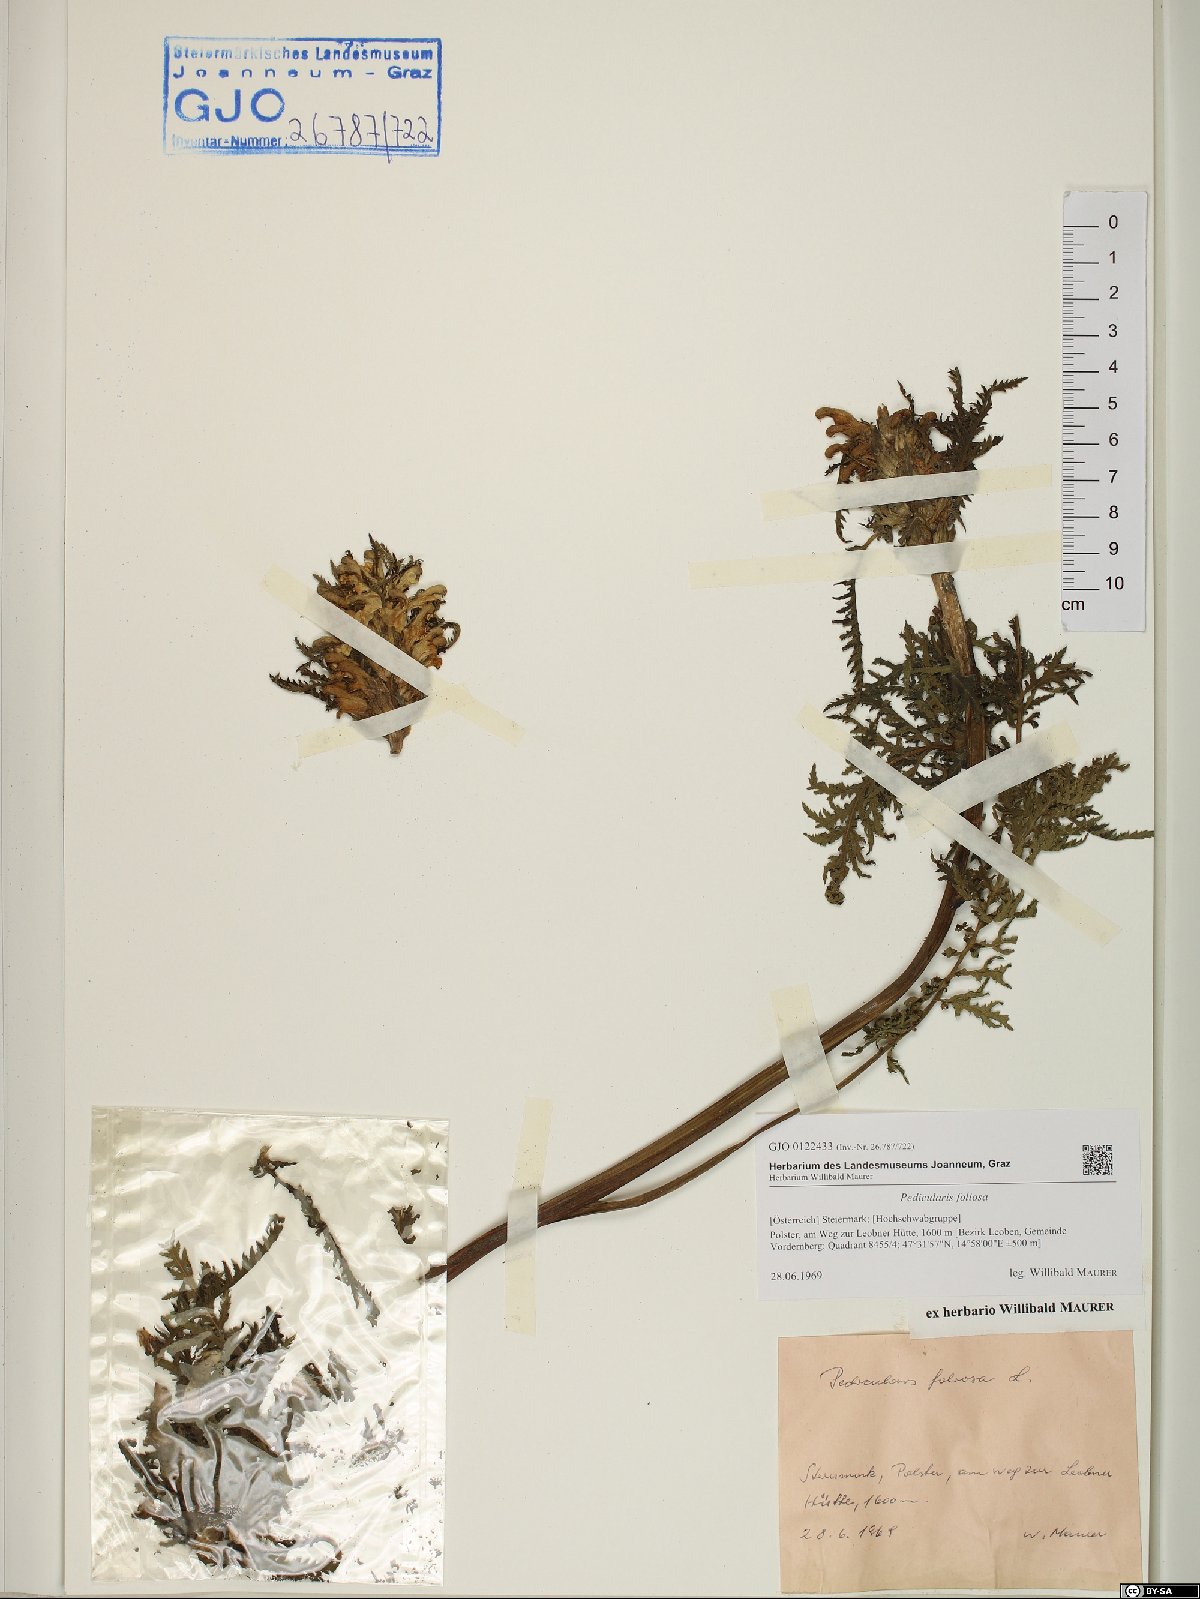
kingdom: Plantae
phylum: Tracheophyta
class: Magnoliopsida
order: Lamiales
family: Orobanchaceae
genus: Pedicularis
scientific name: Pedicularis foliosa
